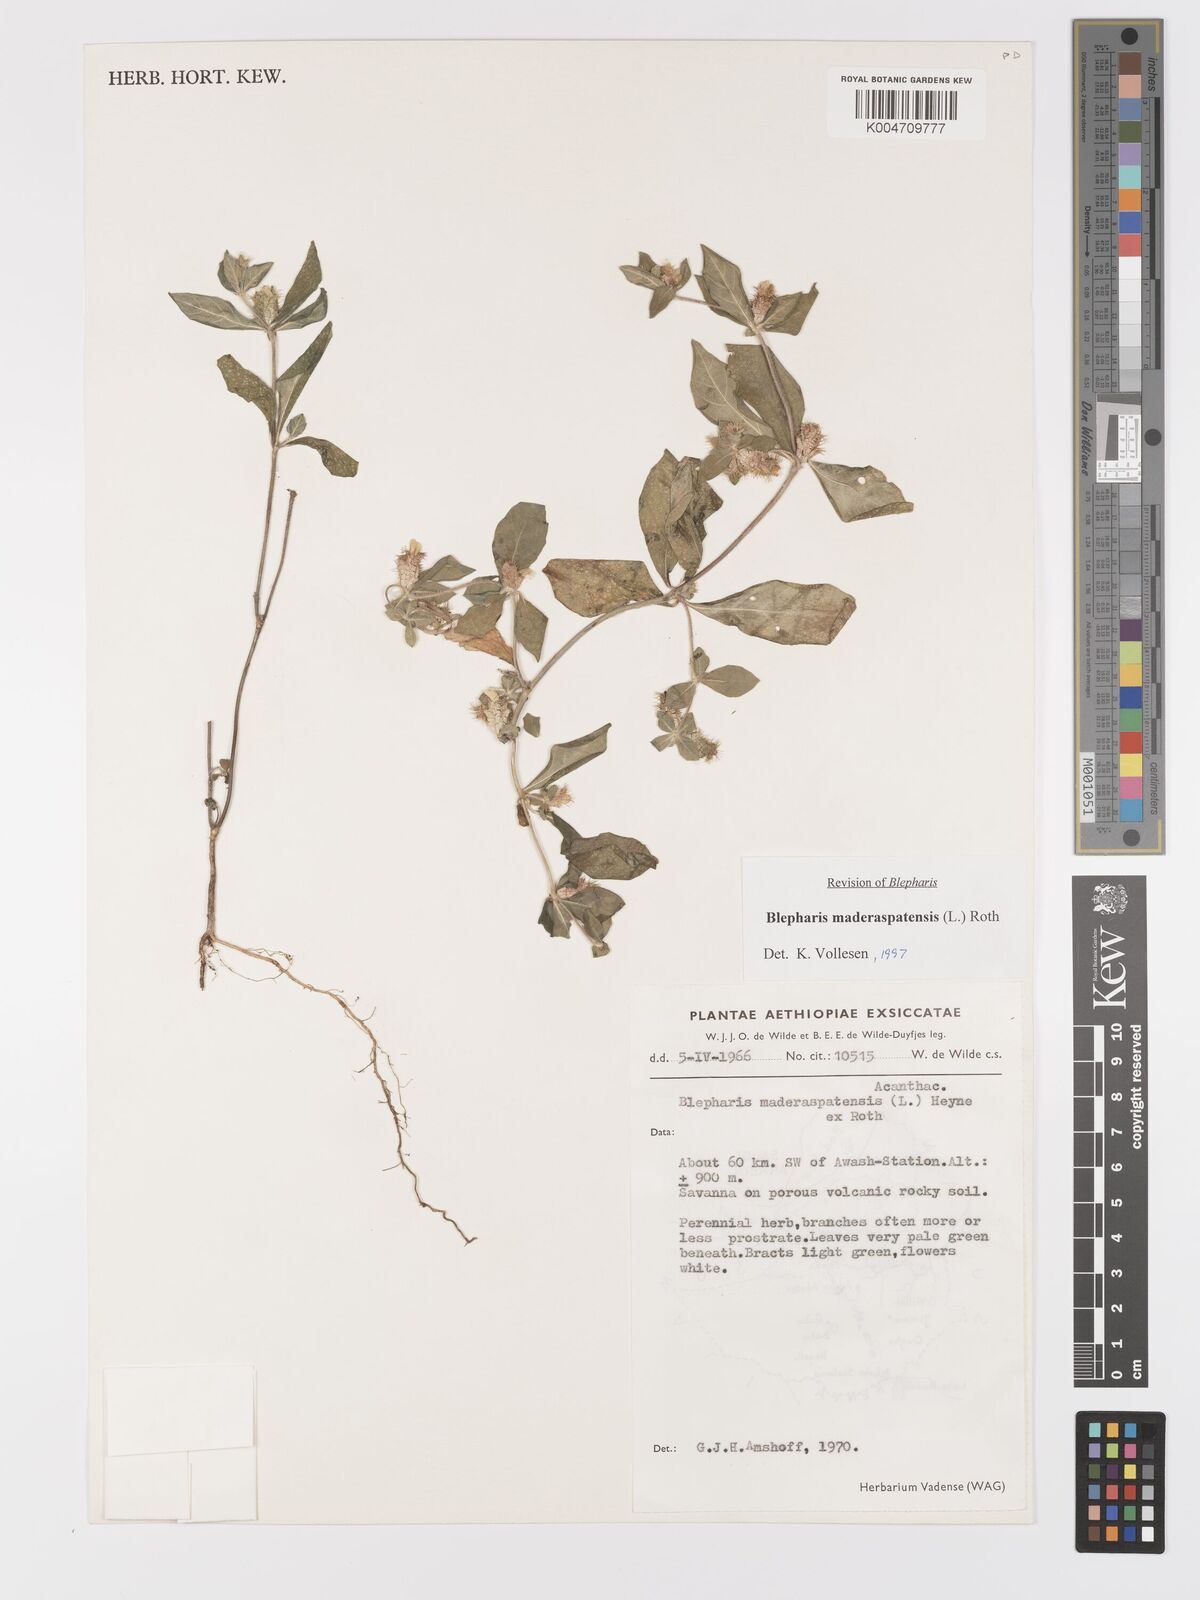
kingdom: Plantae
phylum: Tracheophyta
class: Magnoliopsida
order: Lamiales
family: Acanthaceae
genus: Blepharis
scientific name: Blepharis maderaspatensis
